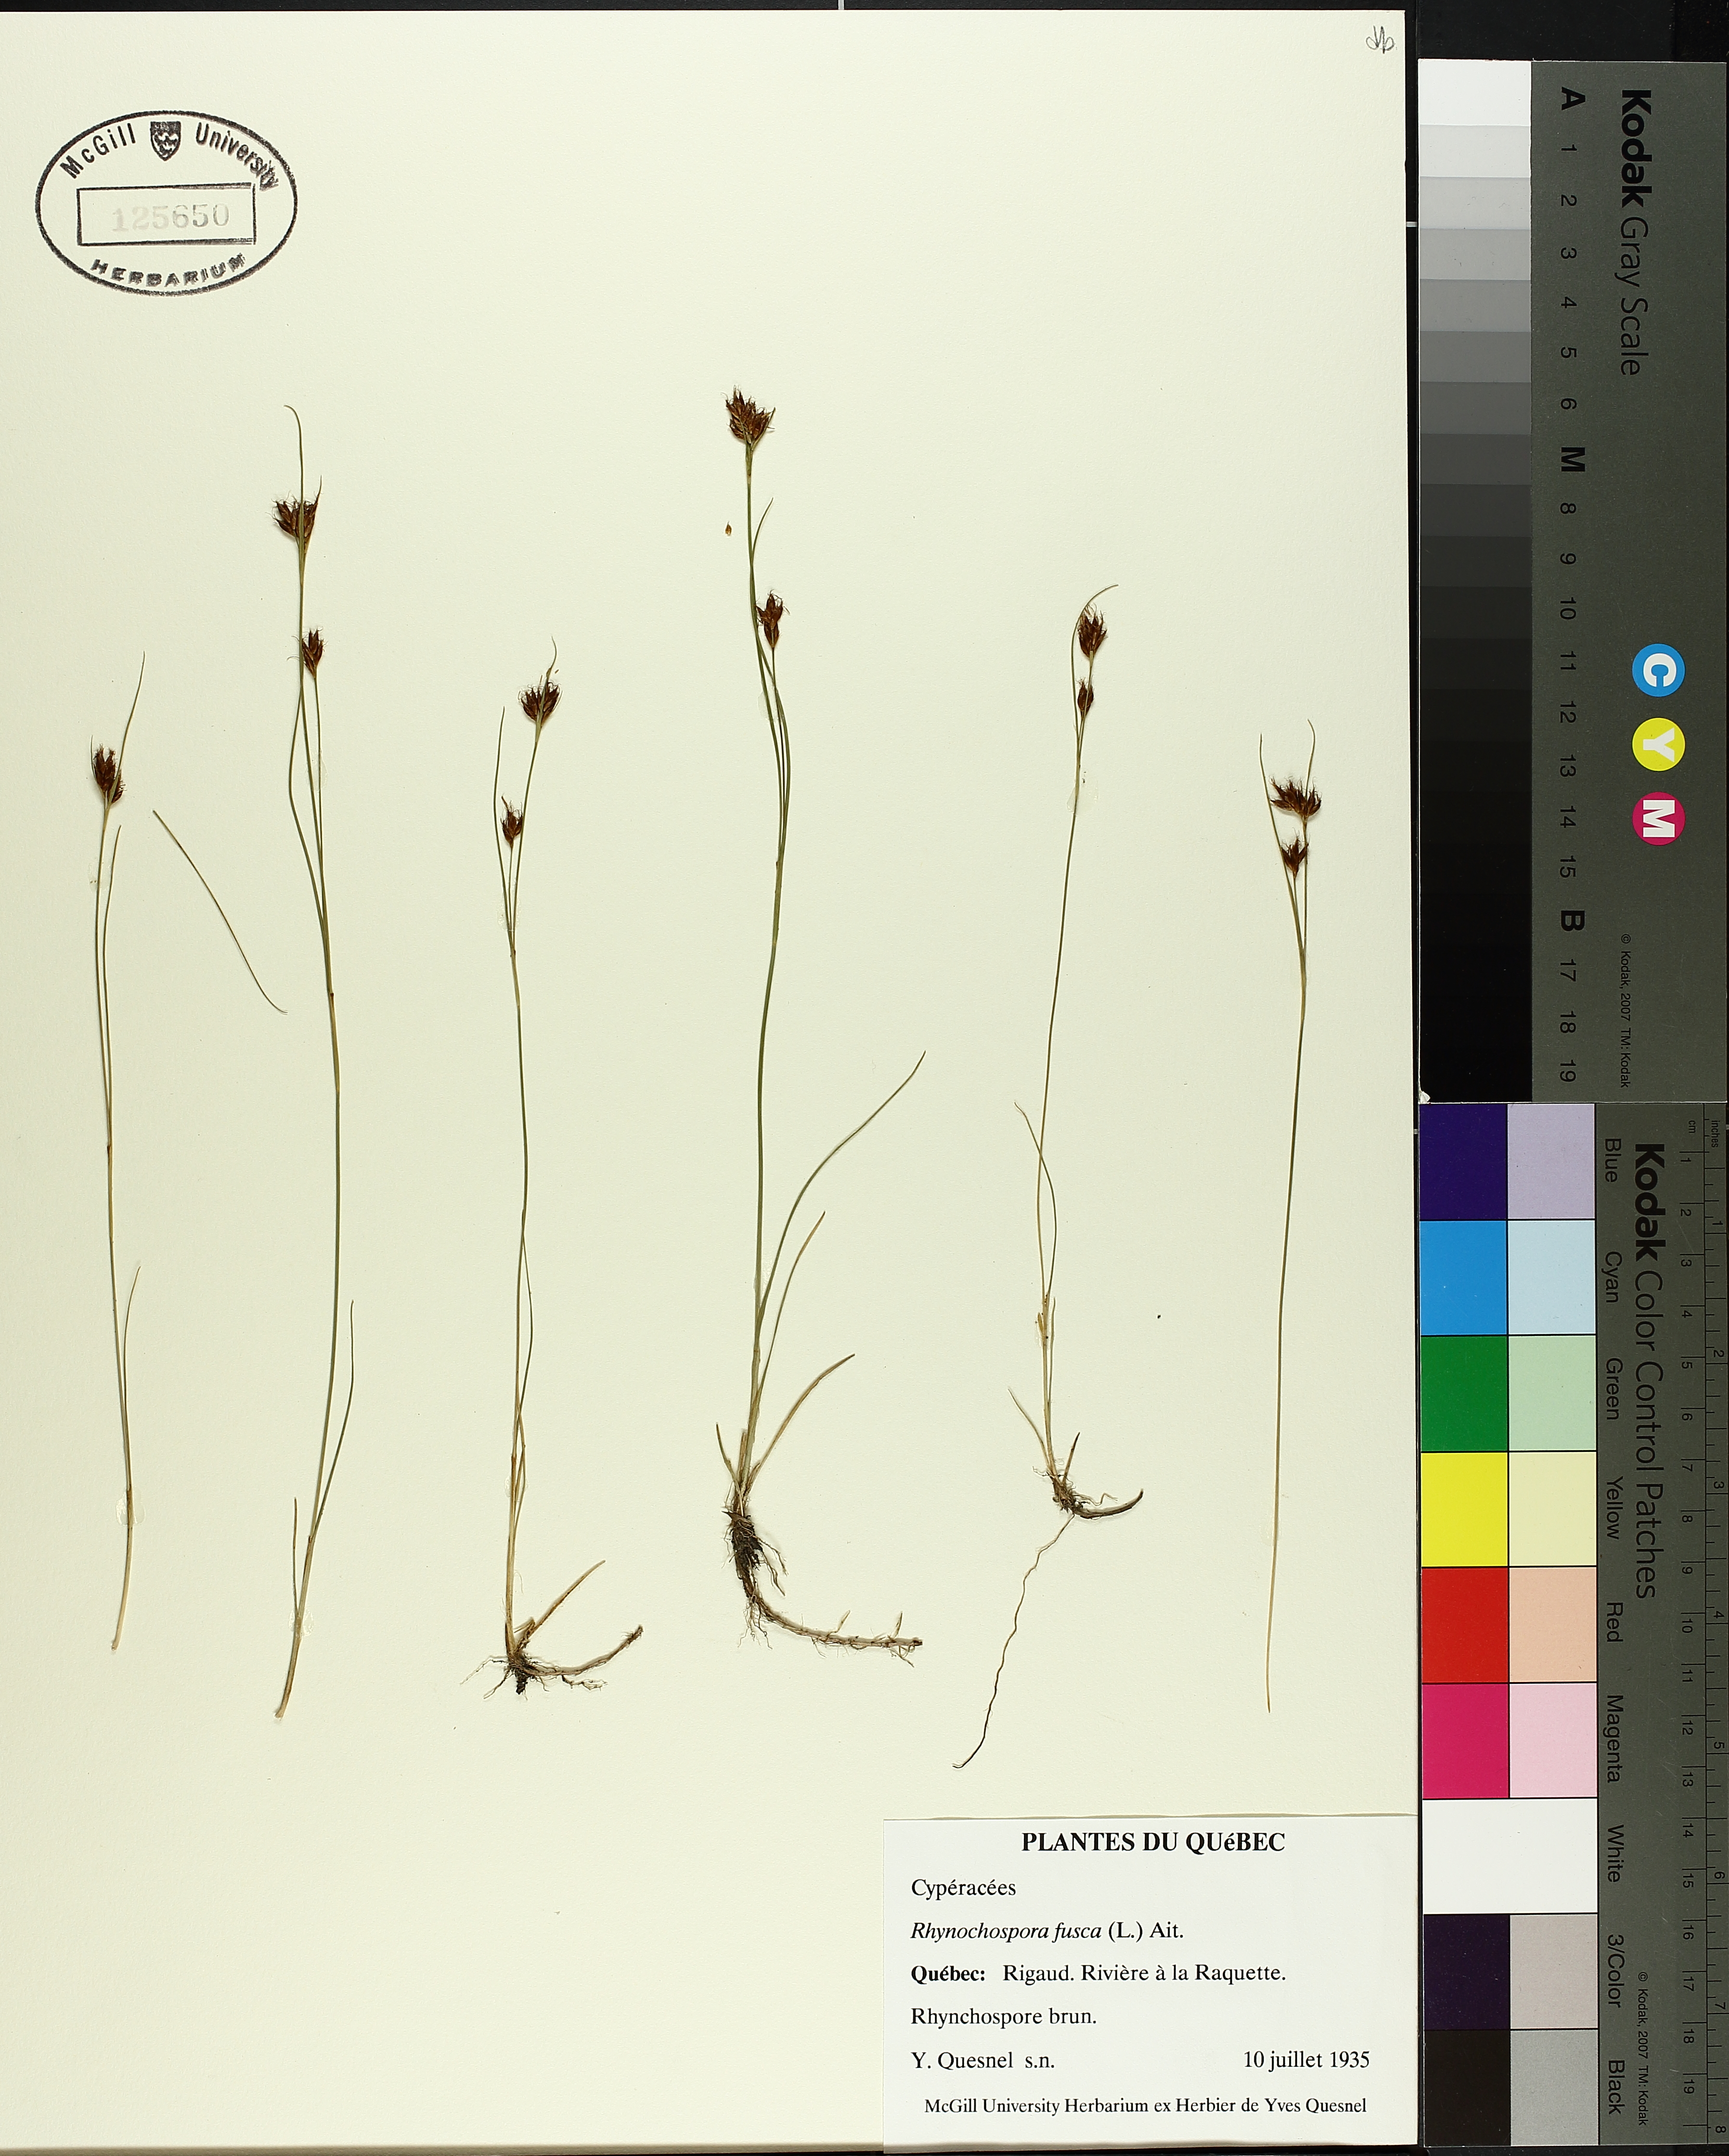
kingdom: Plantae
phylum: Tracheophyta
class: Liliopsida
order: Poales
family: Cyperaceae
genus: Rhynchospora
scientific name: Rhynchospora fusca
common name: Brown beak-sedge
